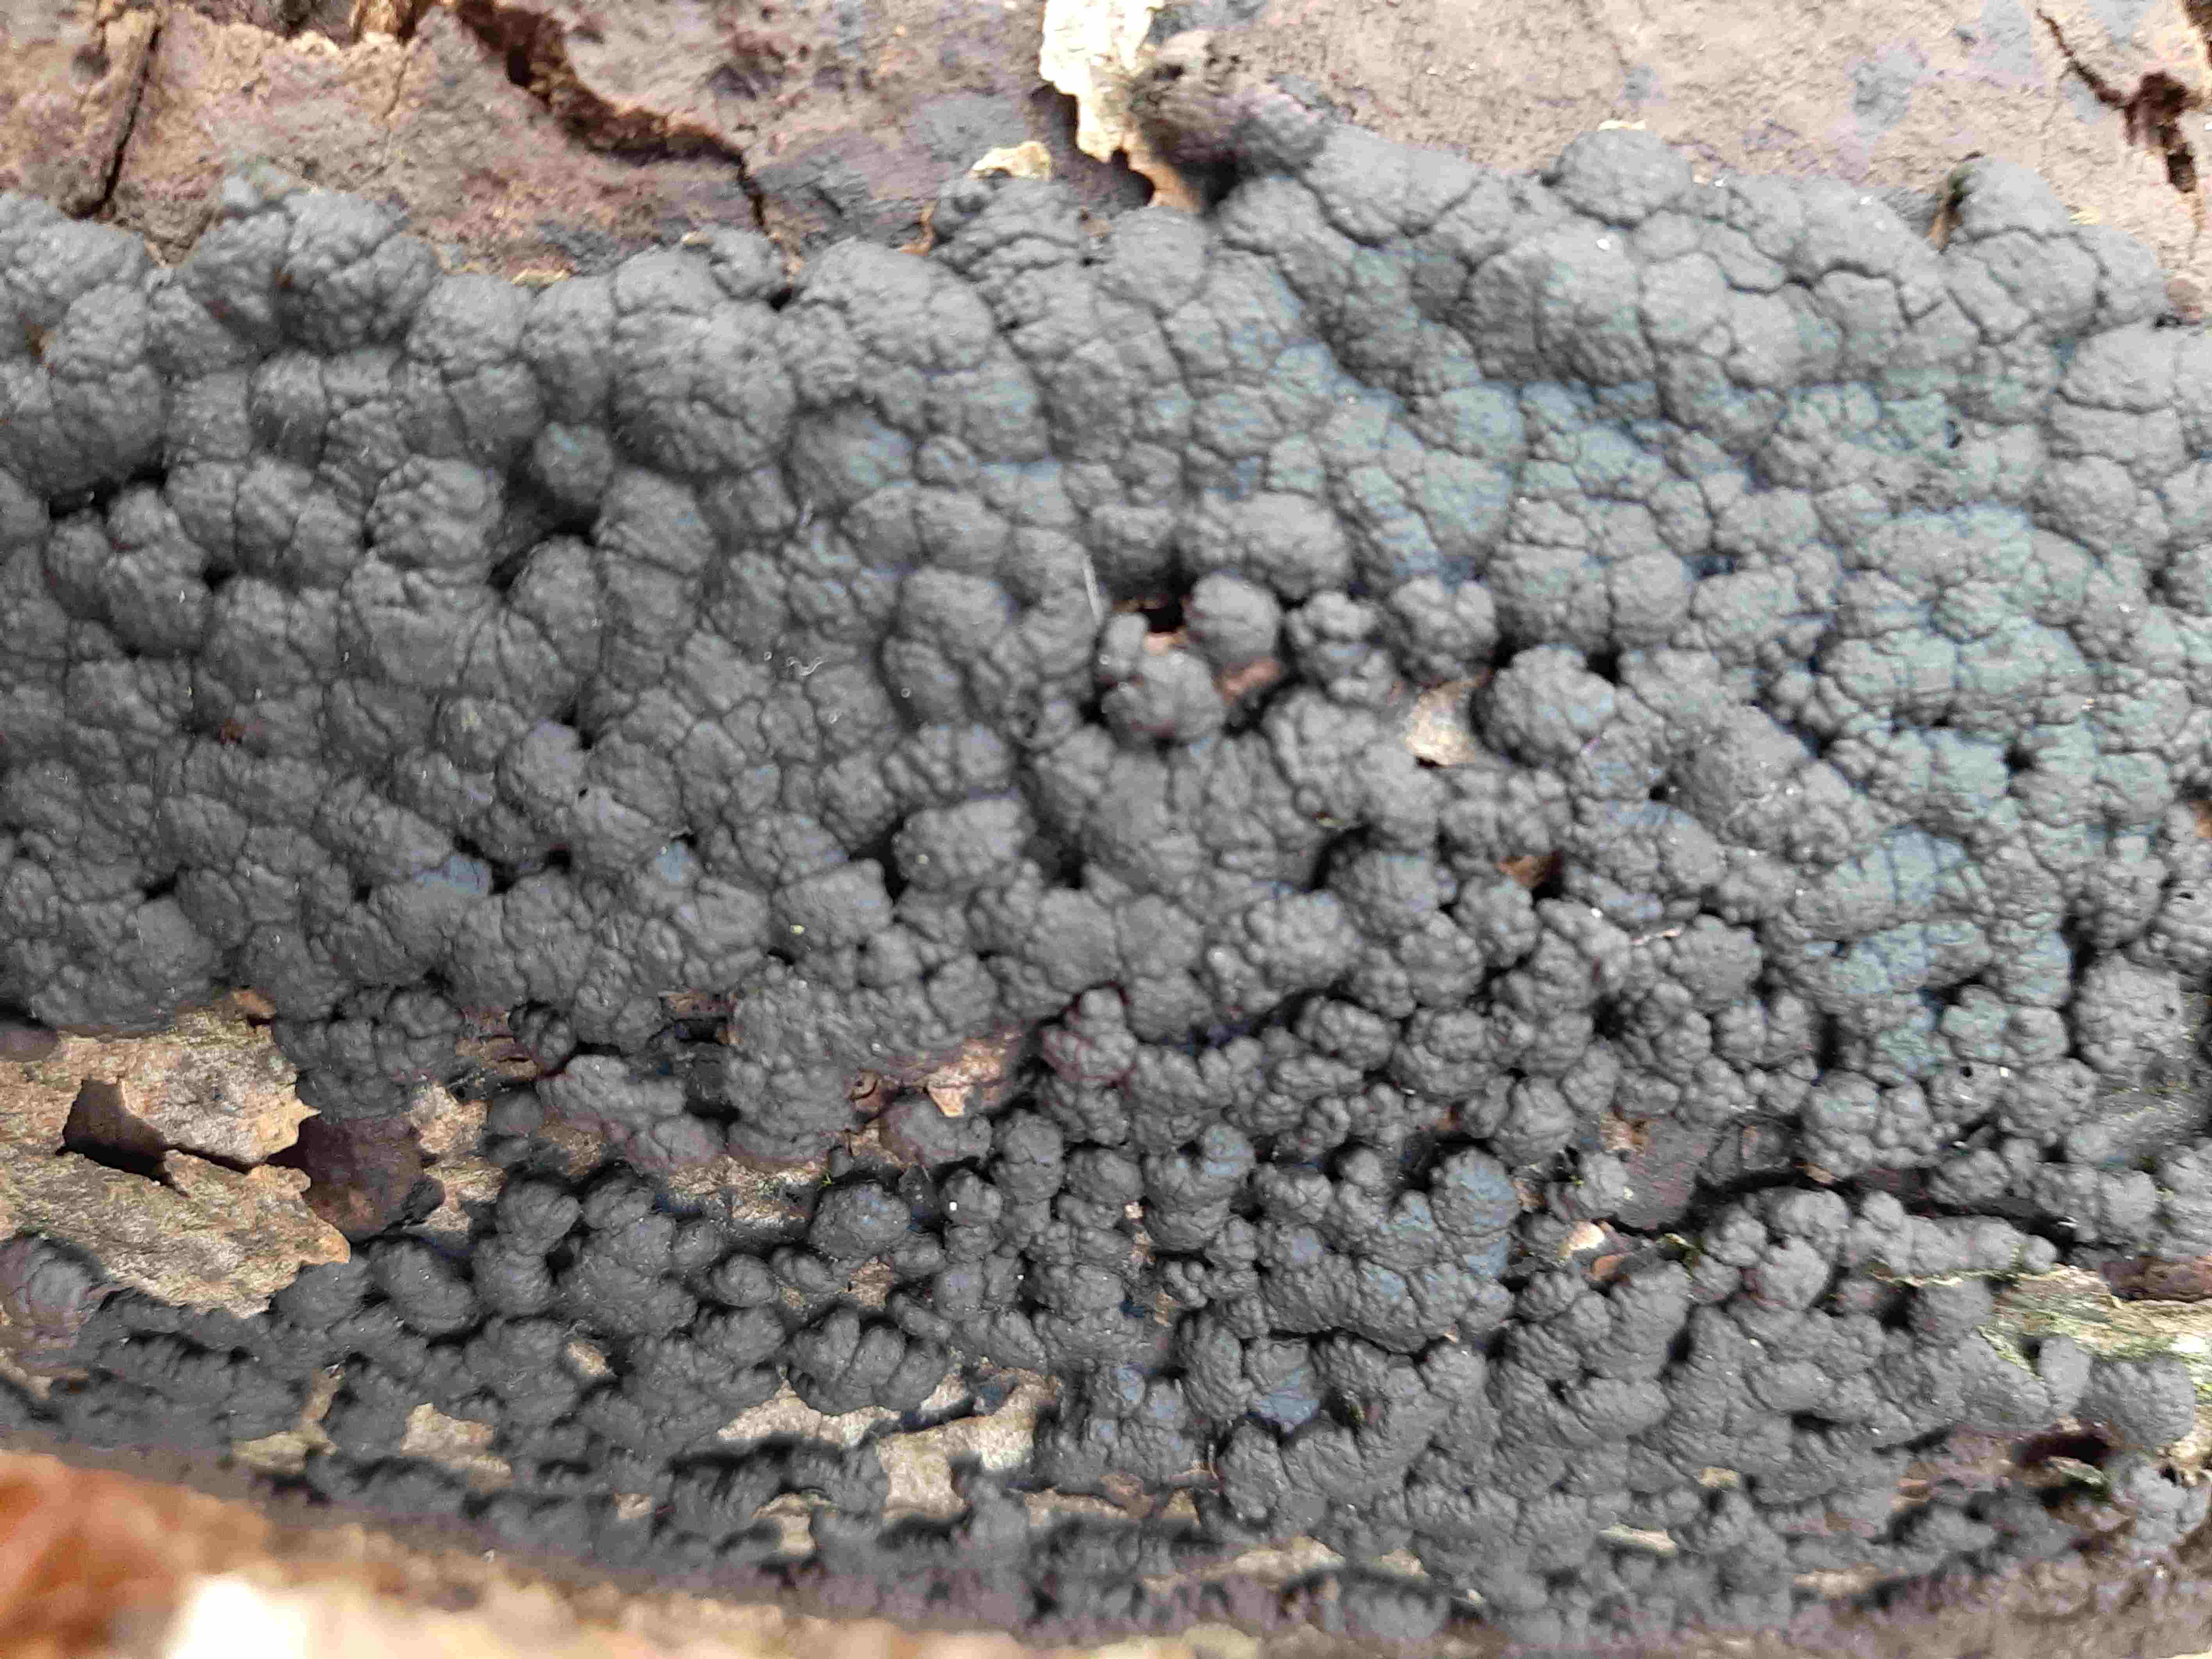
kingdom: Fungi
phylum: Ascomycota
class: Sordariomycetes
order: Xylariales
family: Hypoxylaceae
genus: Jackrogersella
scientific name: Jackrogersella cohaerens
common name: sammenflydende kulbær
